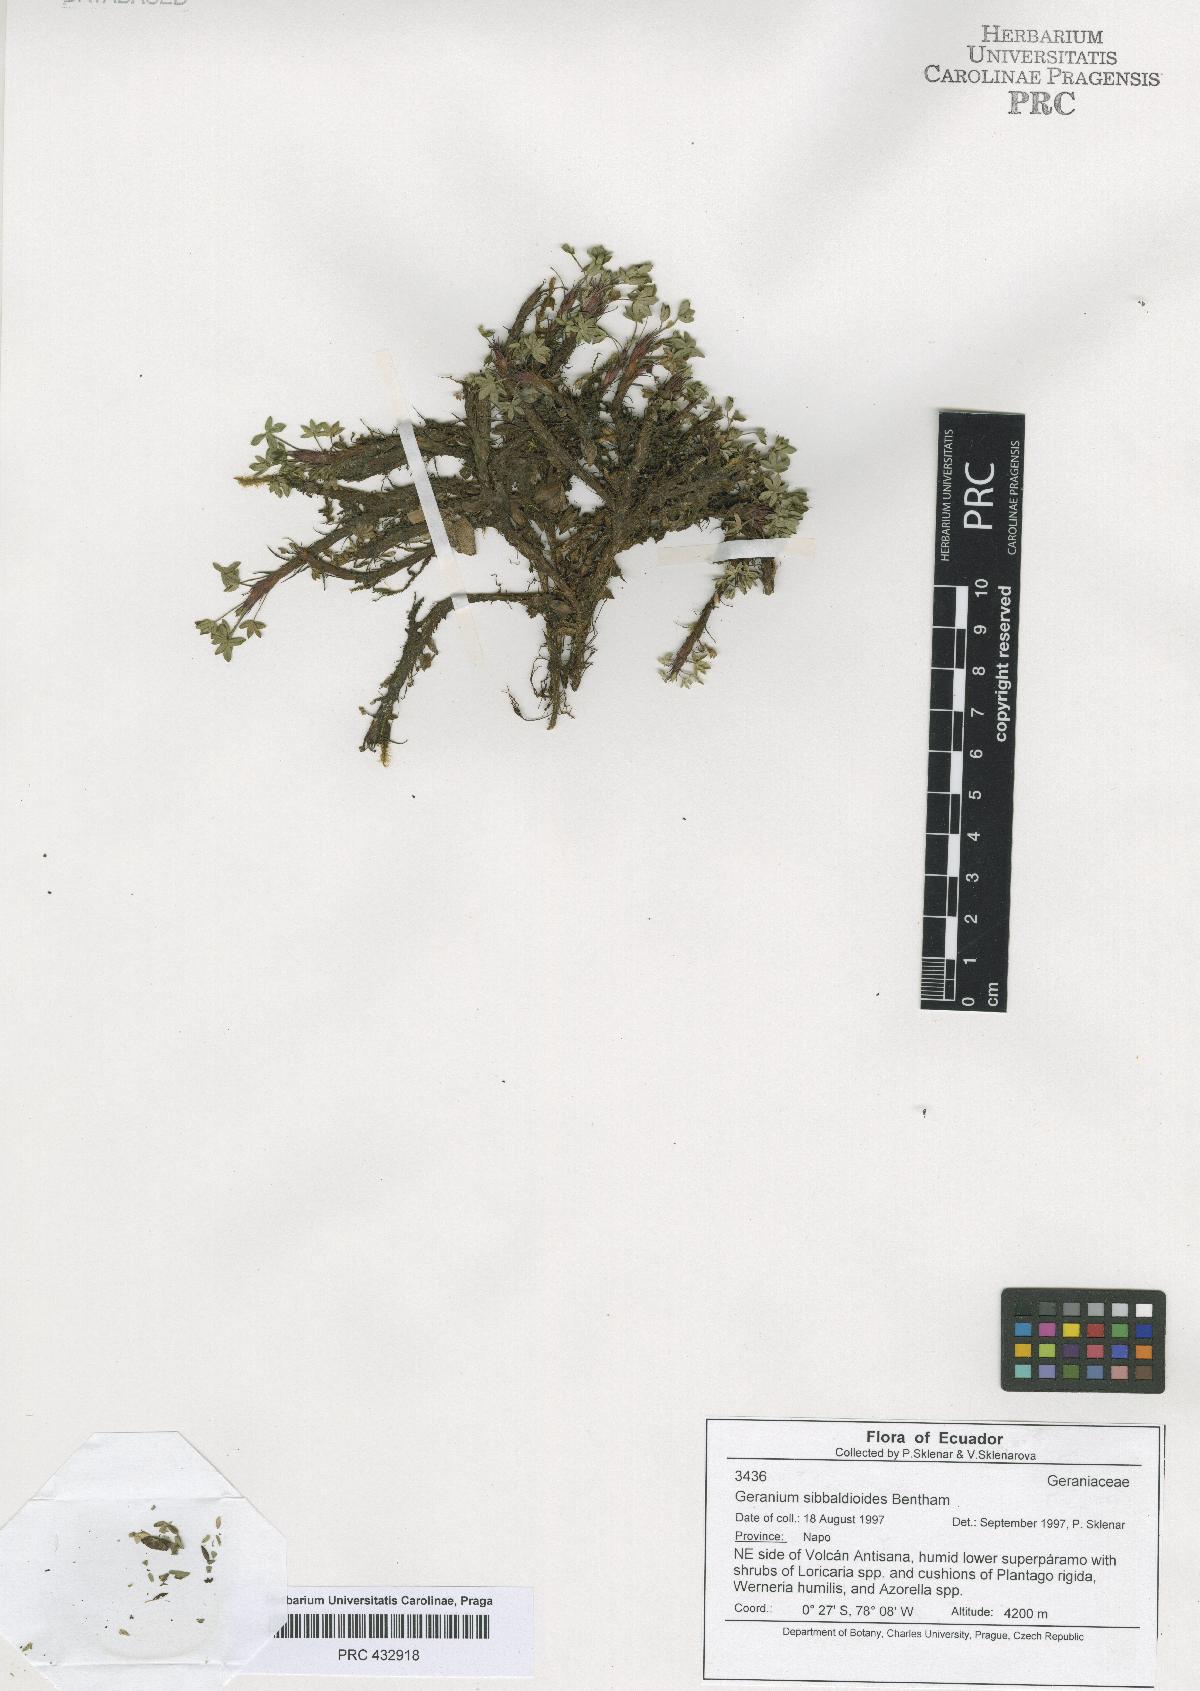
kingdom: Plantae
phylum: Tracheophyta
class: Magnoliopsida
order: Geraniales
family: Geraniaceae
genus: Geranium
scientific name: Geranium sibbaldioides
